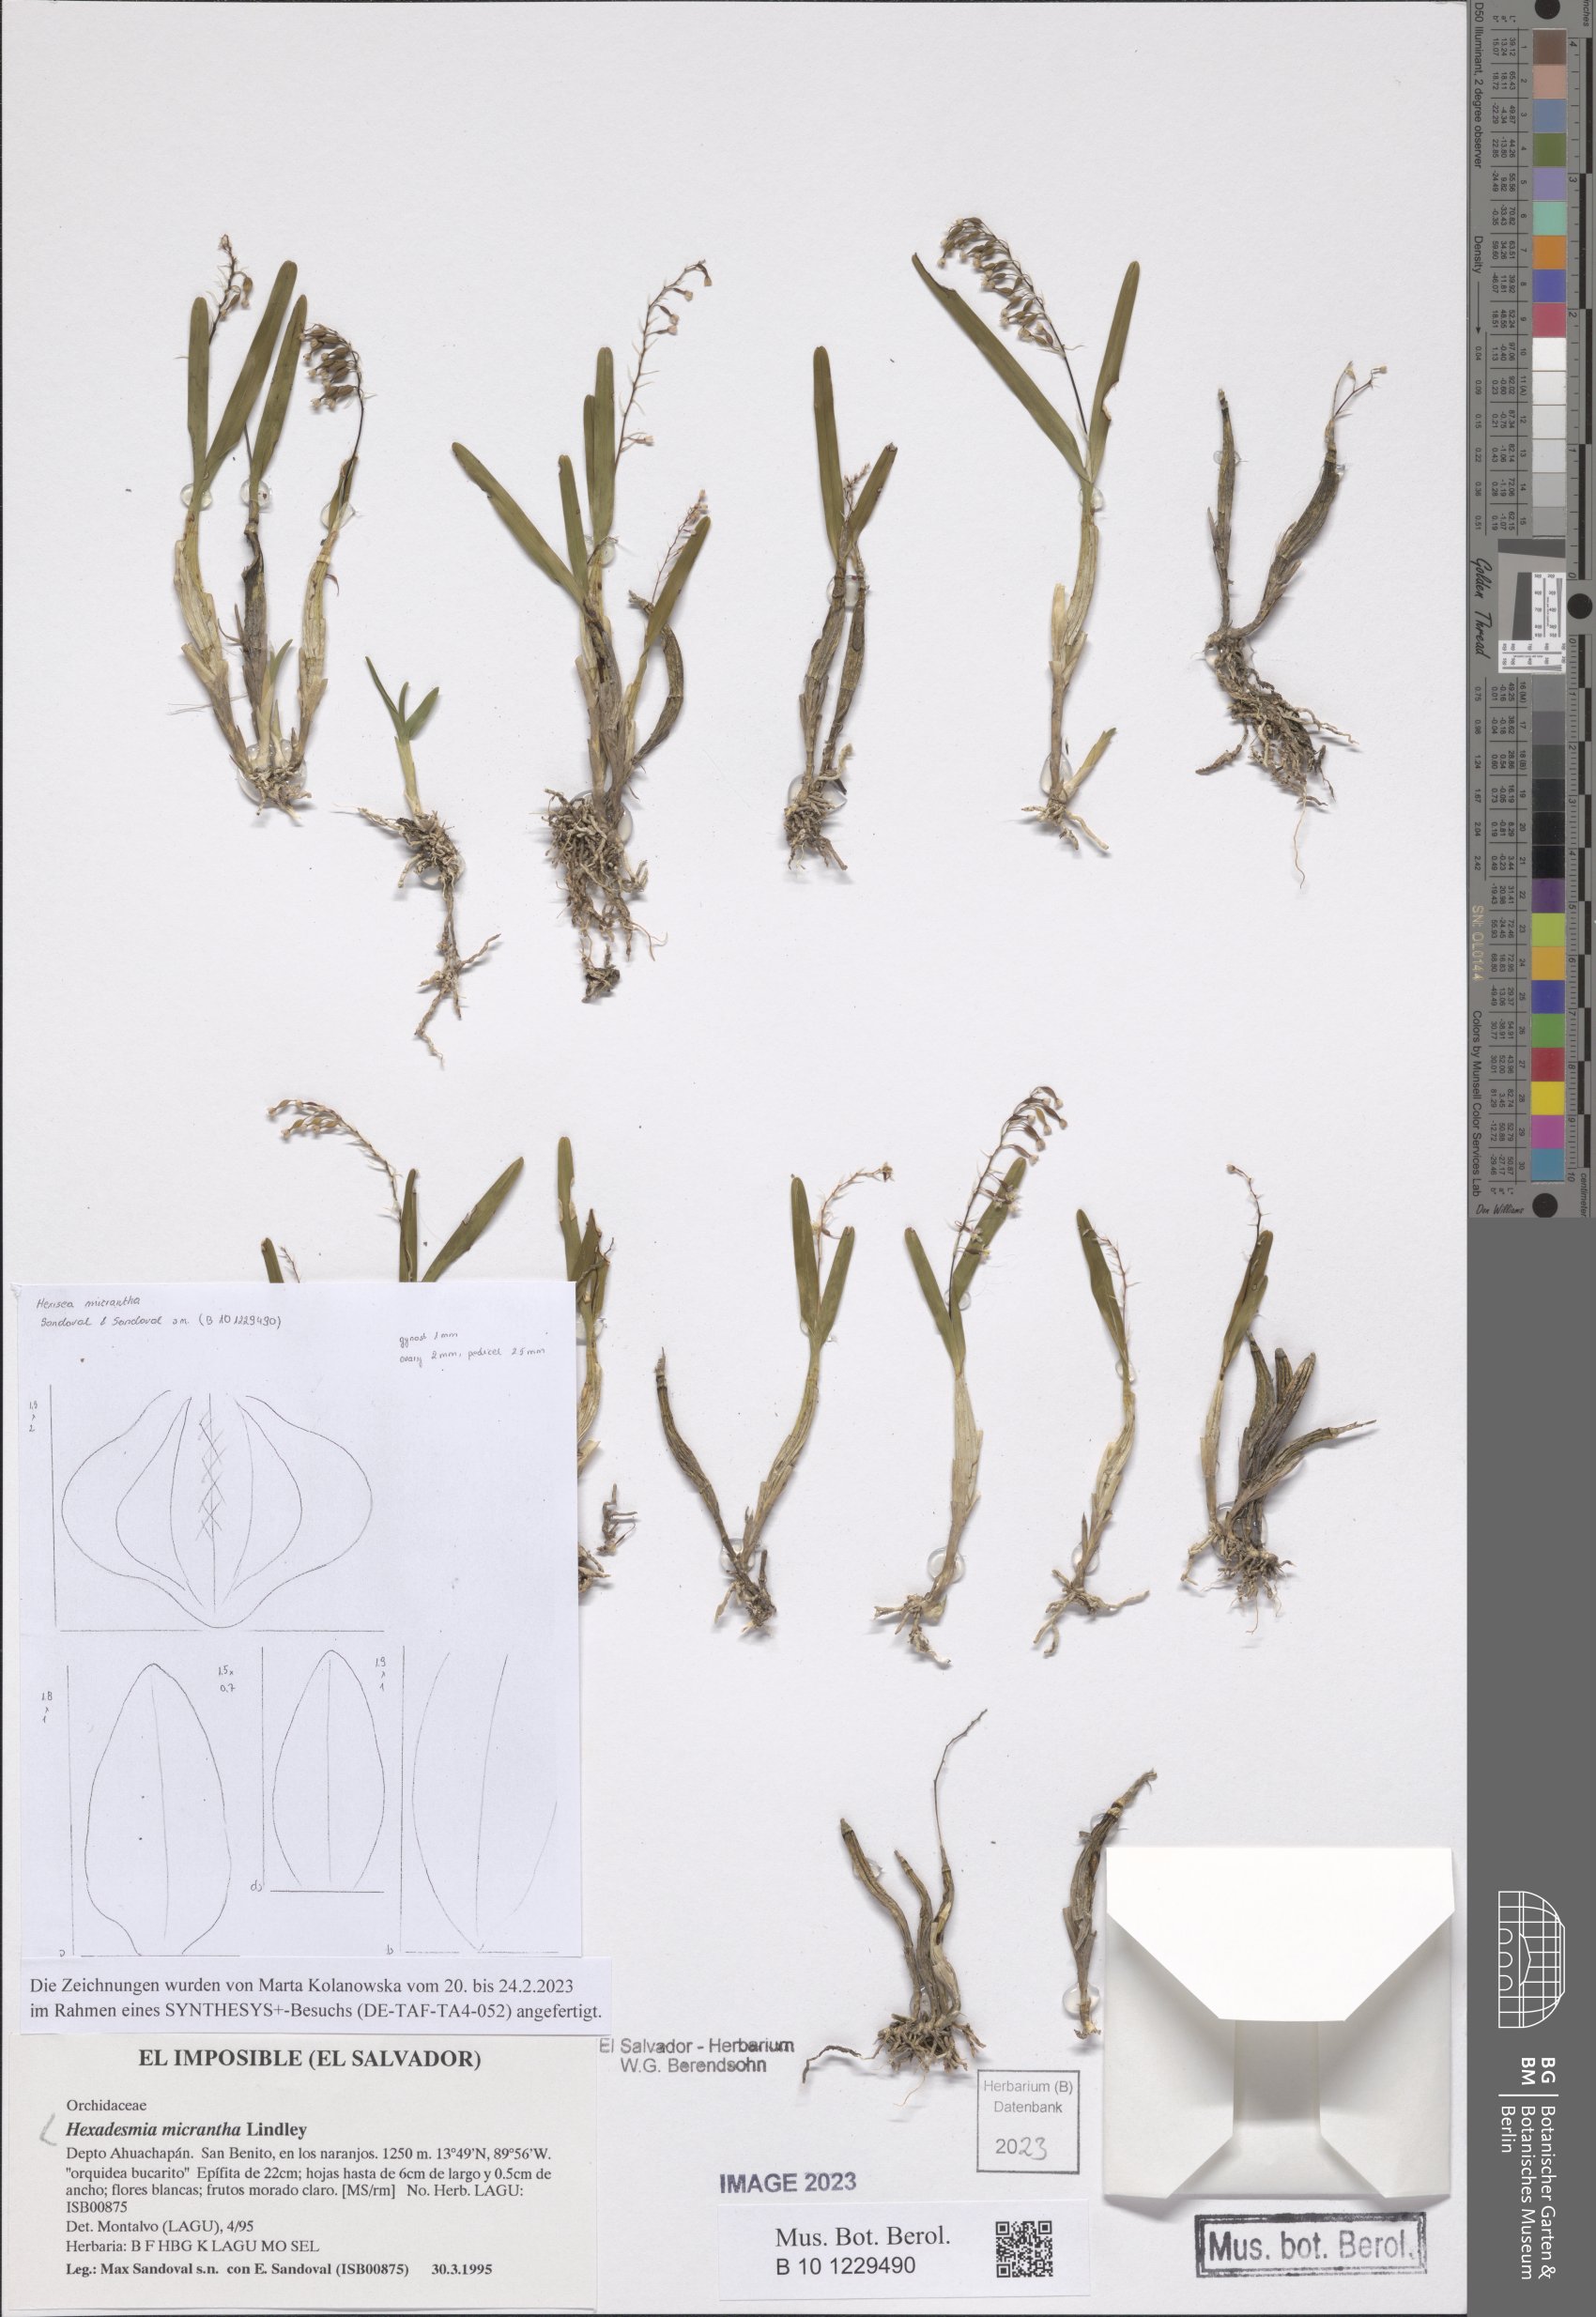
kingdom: Plantae
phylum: Tracheophyta
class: Liliopsida
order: Asparagales
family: Orchidaceae
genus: Scaphyglottis
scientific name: Scaphyglottis micrantha
